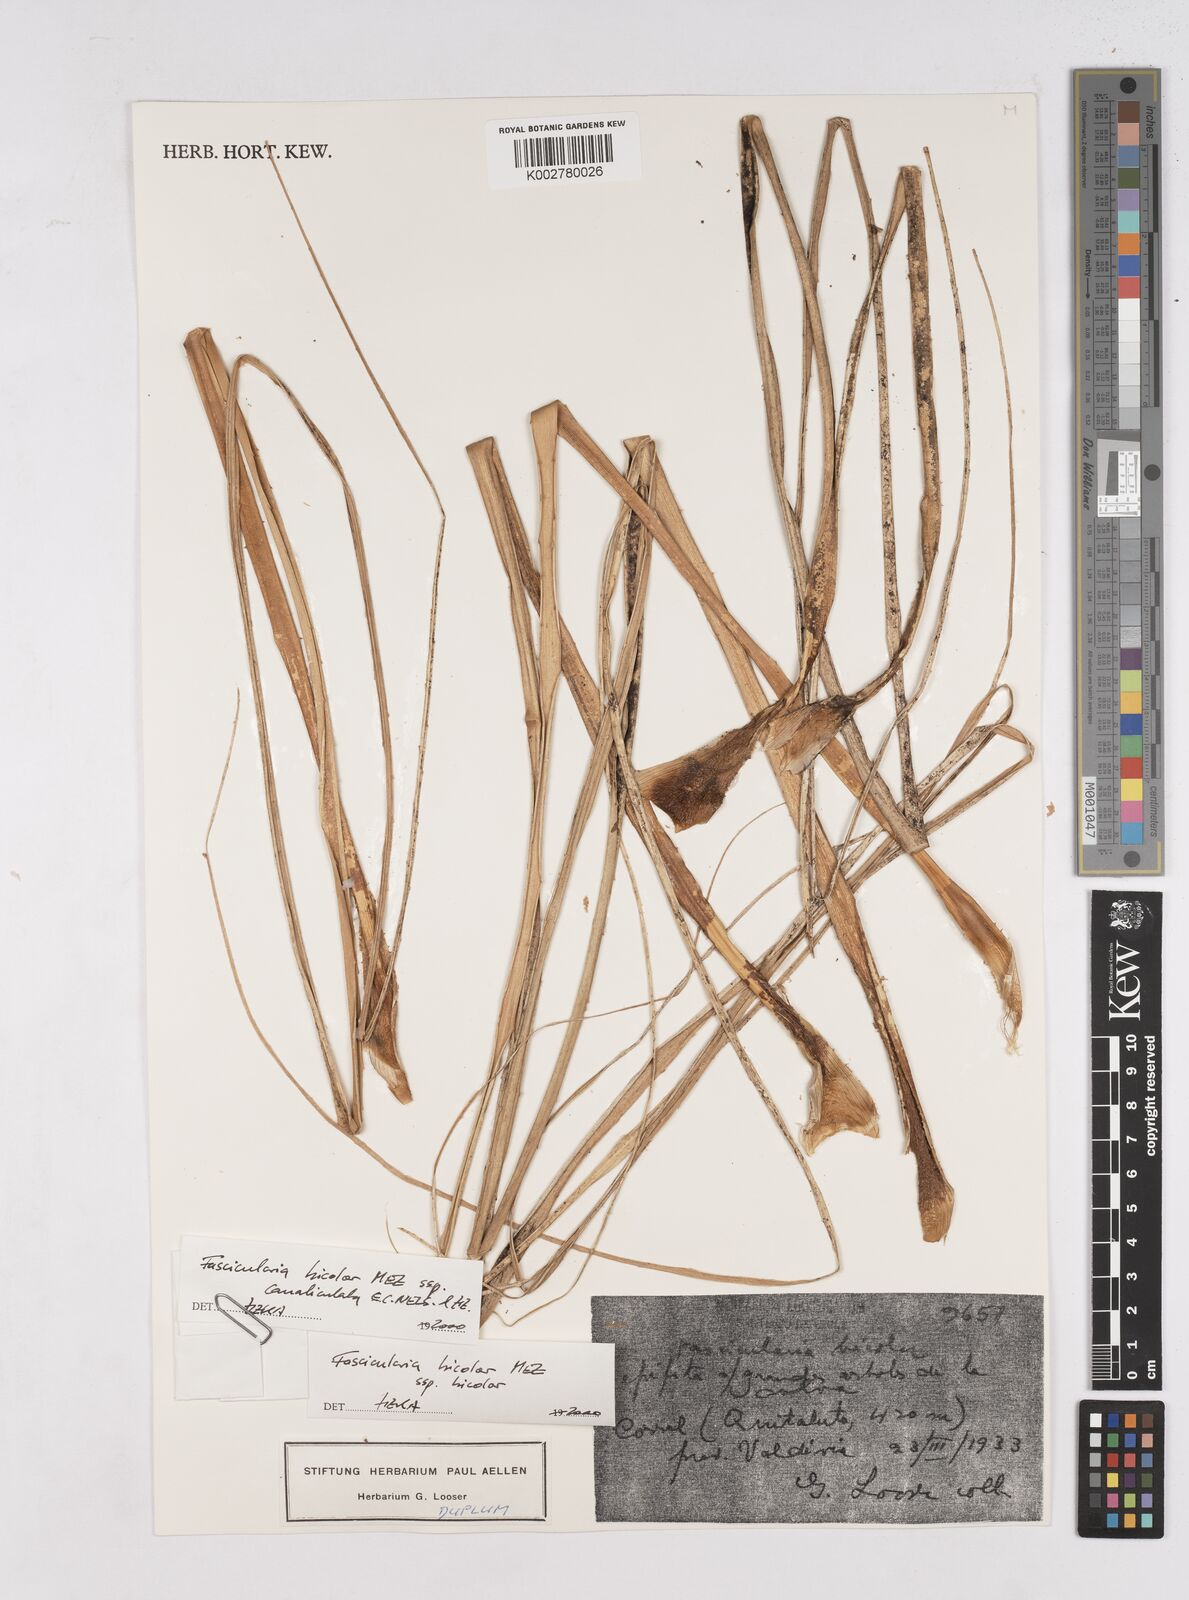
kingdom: Plantae
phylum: Tracheophyta
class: Liliopsida
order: Poales
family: Bromeliaceae
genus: Fascicularia
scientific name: Fascicularia bicolor
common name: Rhodostachys
